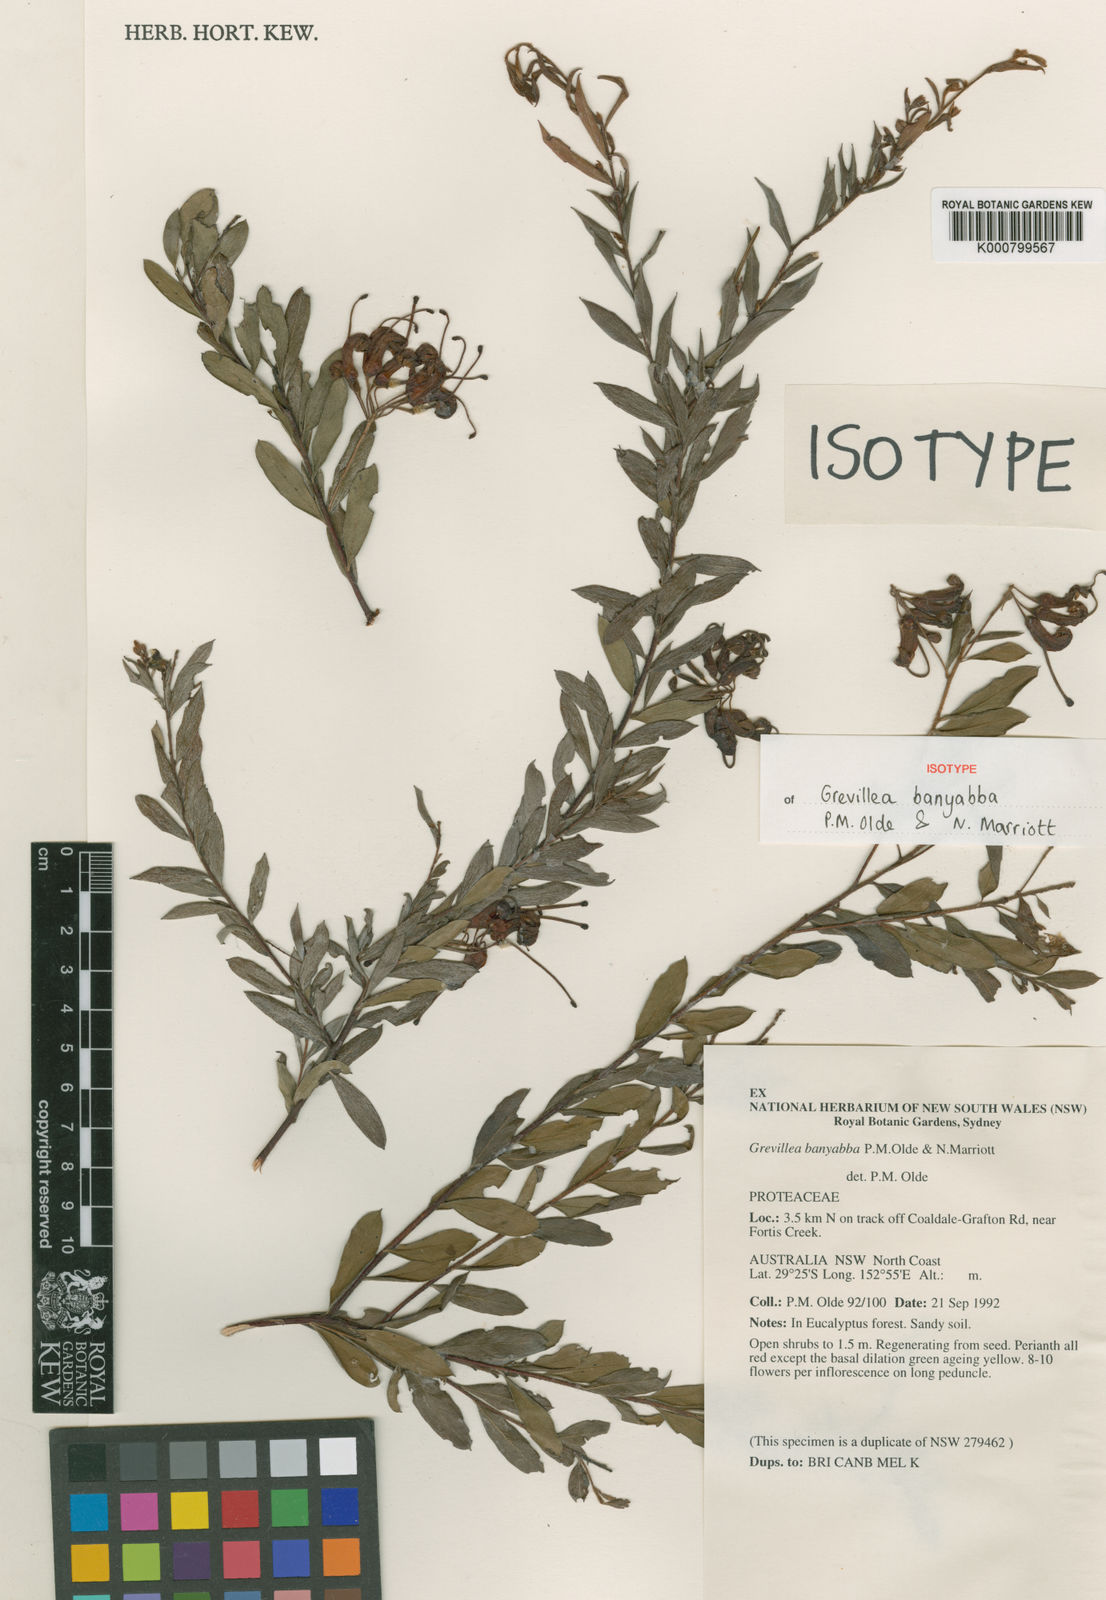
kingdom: Plantae
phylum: Tracheophyta
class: Magnoliopsida
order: Proteales
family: Proteaceae
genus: Grevillea
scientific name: Grevillea banyabba
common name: Banyabba grevillea
